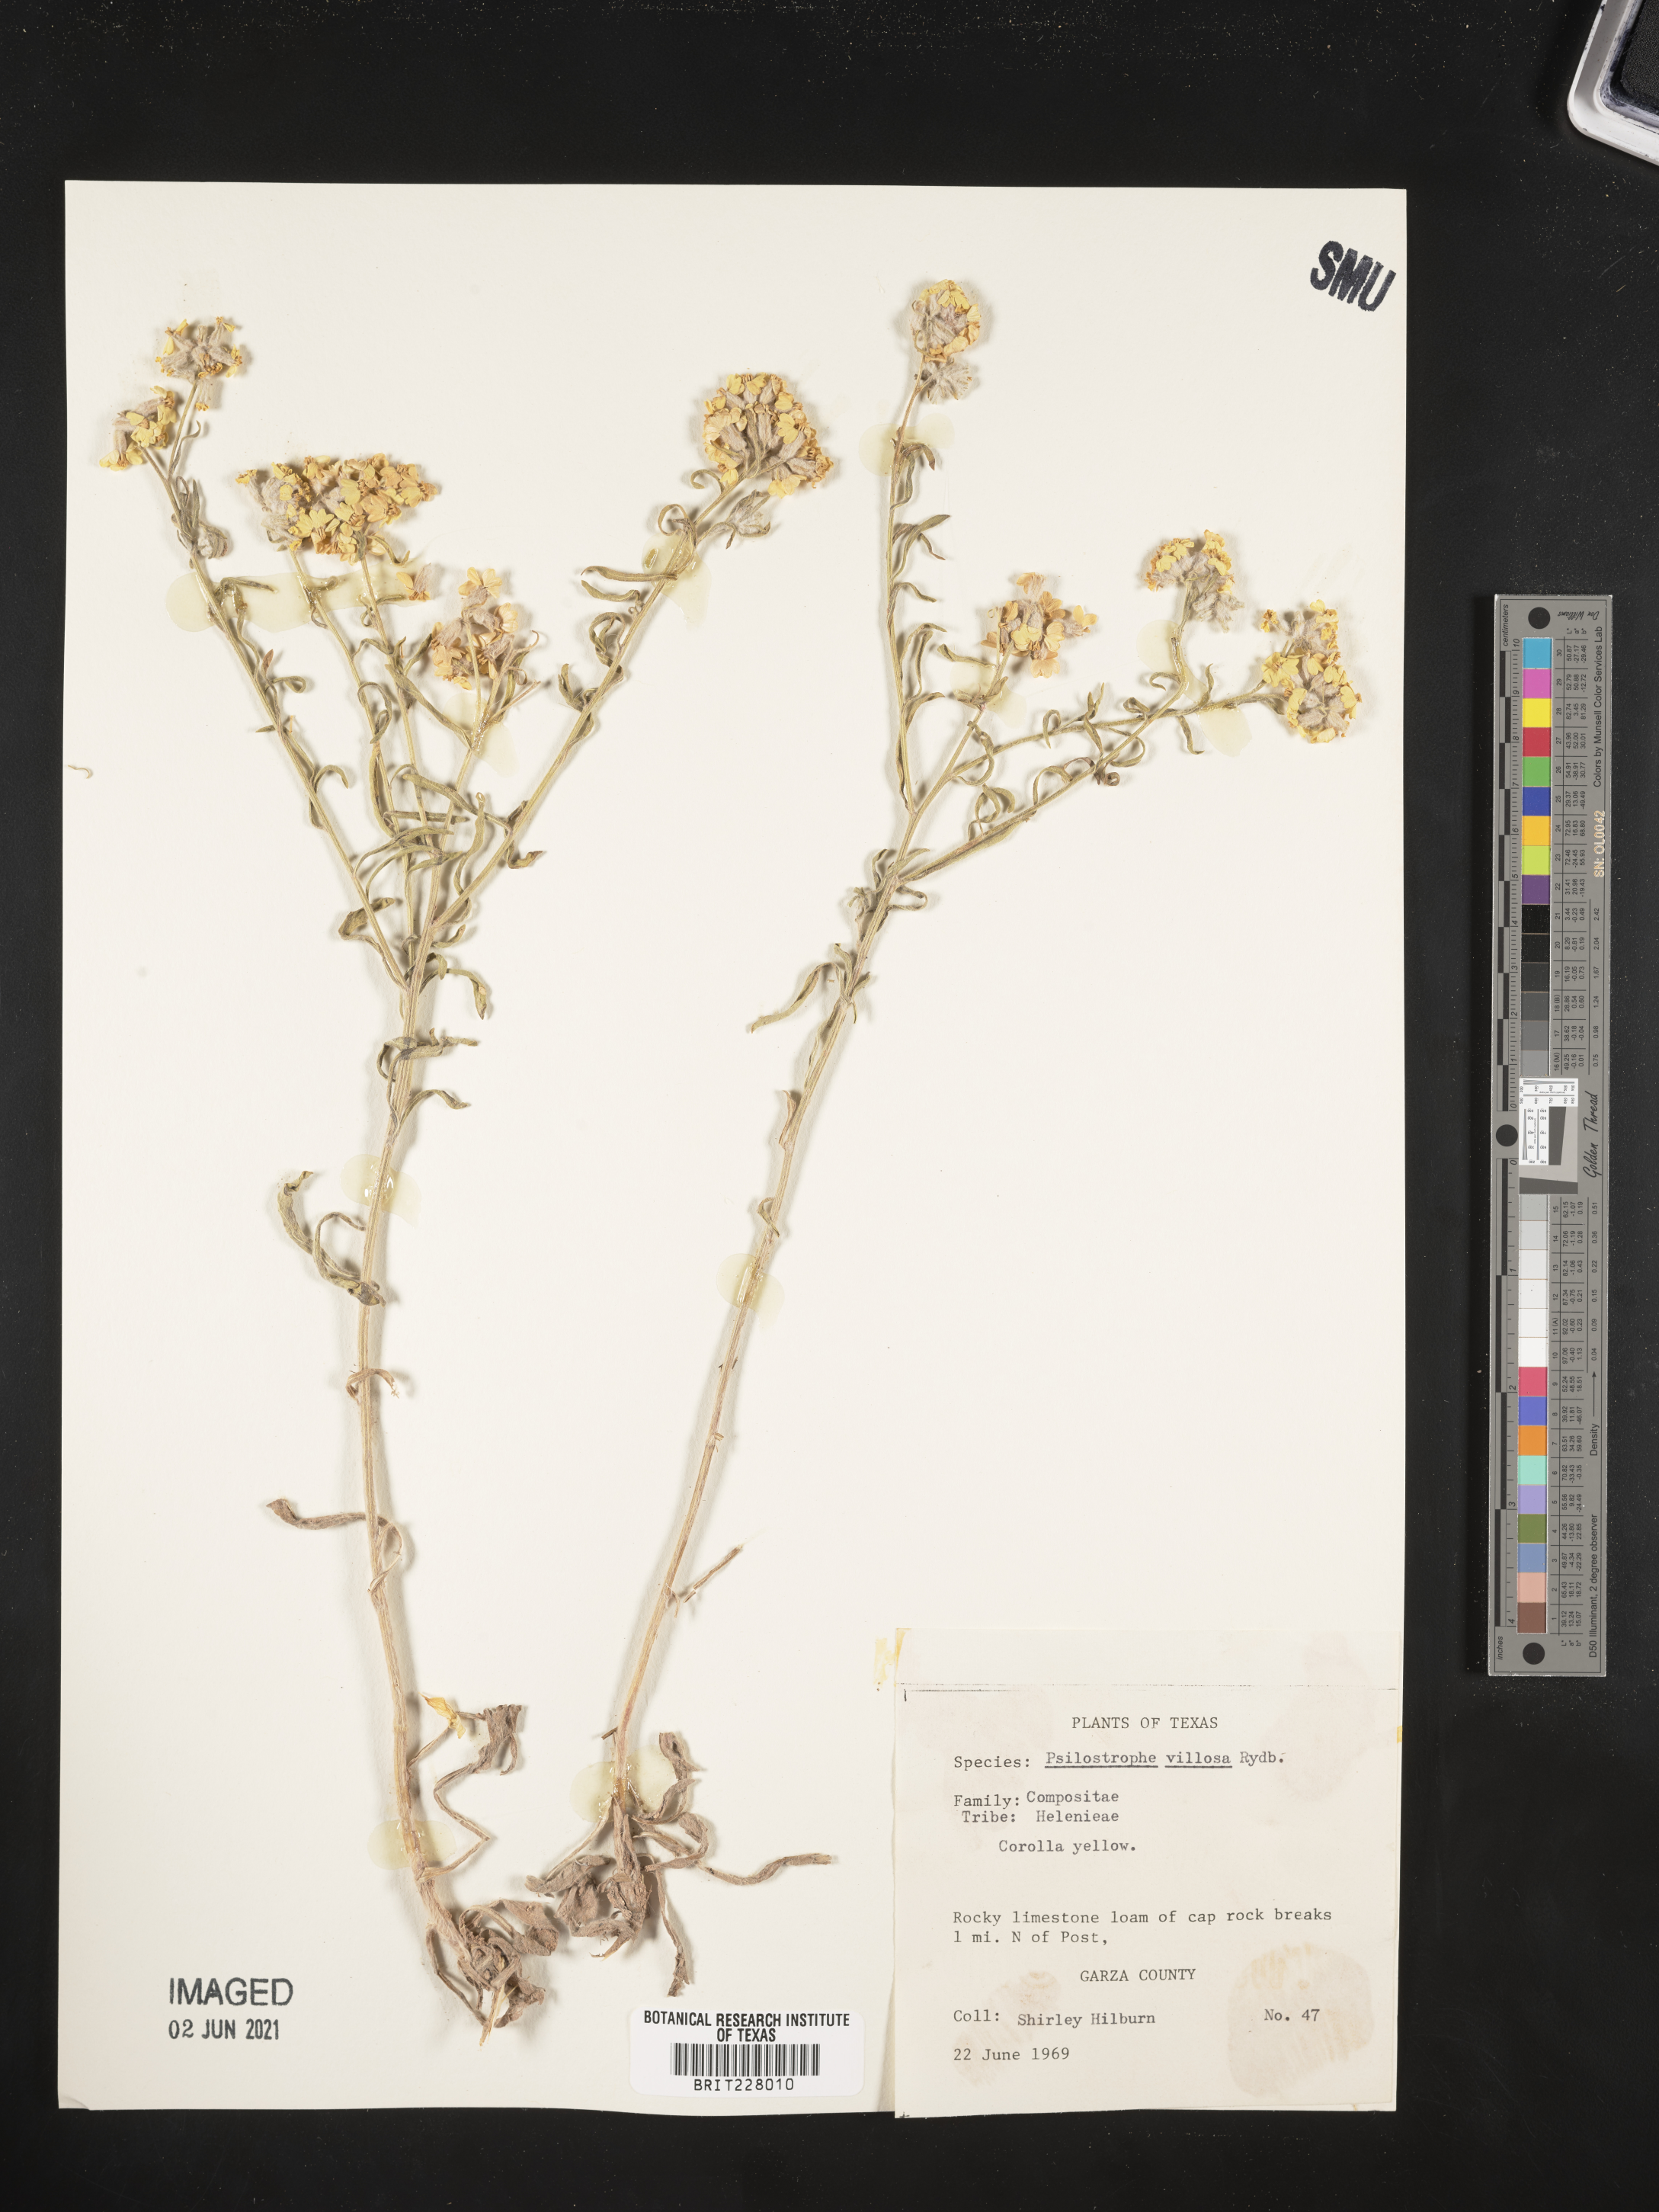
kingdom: Plantae
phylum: Tracheophyta
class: Magnoliopsida
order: Asterales
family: Asteraceae
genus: Psilostrophe
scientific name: Psilostrophe villosa
